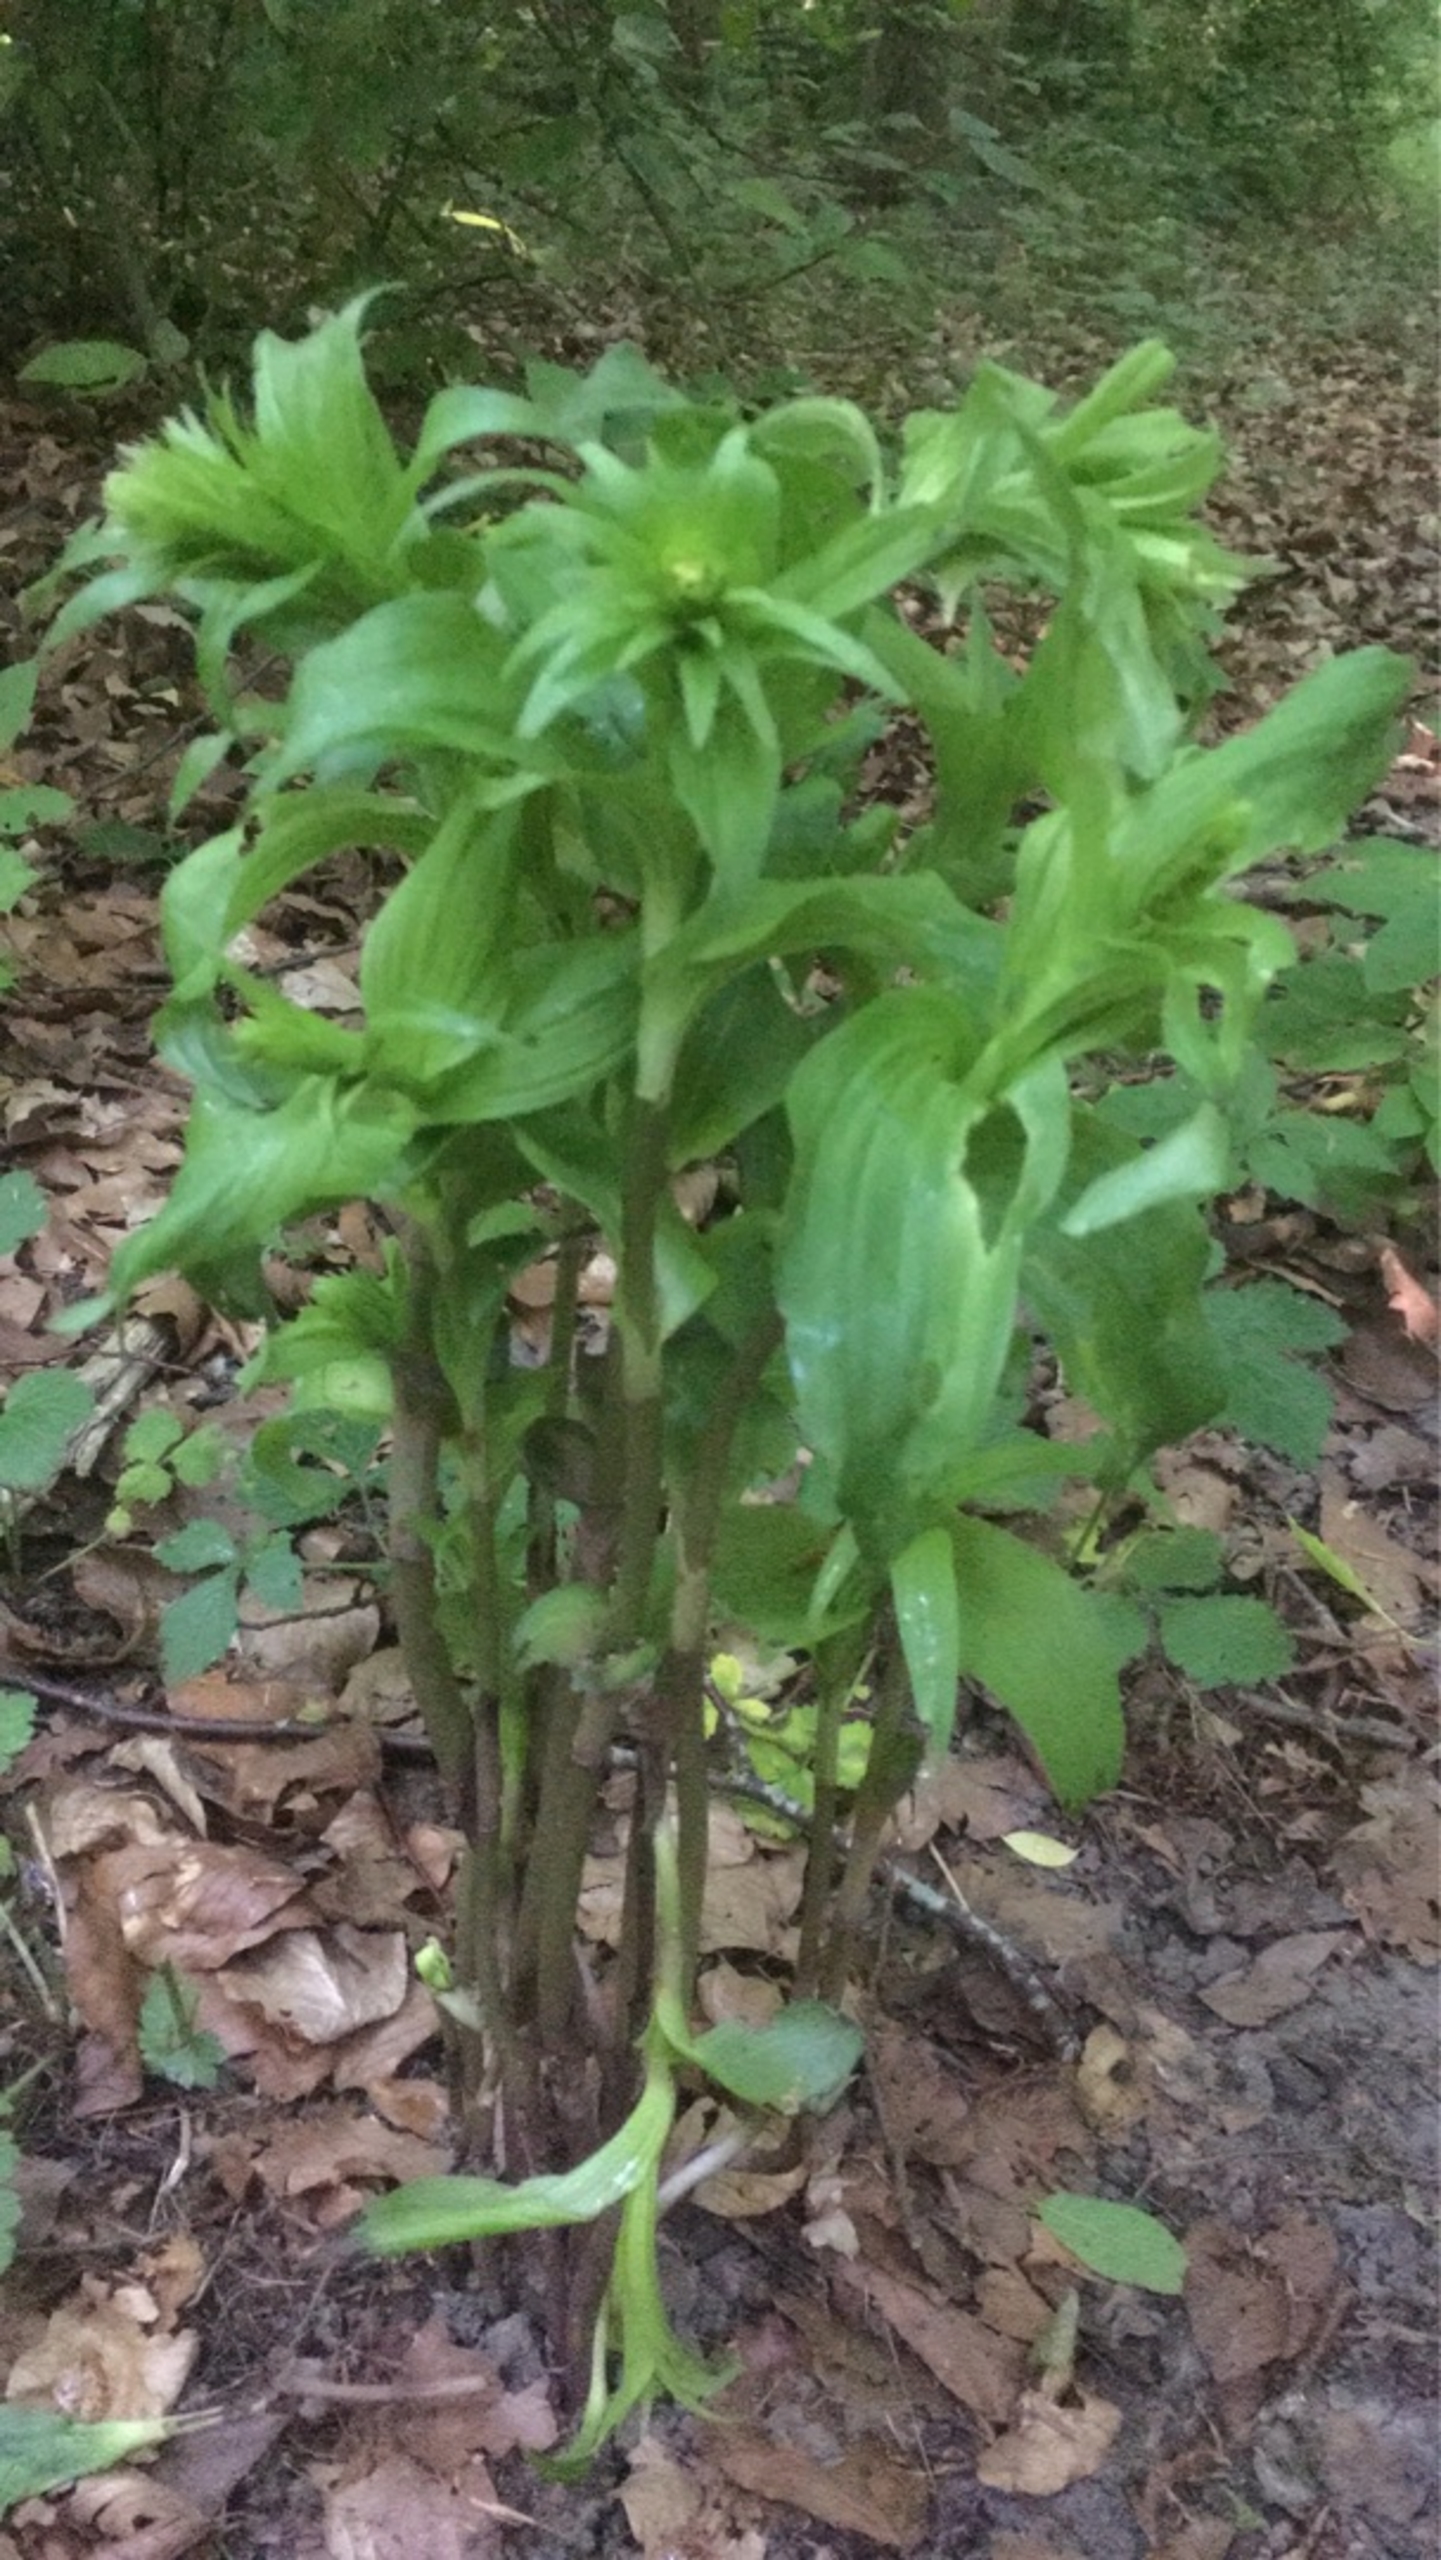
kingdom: Plantae
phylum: Tracheophyta
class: Liliopsida
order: Asparagales
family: Orchidaceae
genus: Epipactis
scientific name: Epipactis helleborine
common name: Skov-hullæbe
